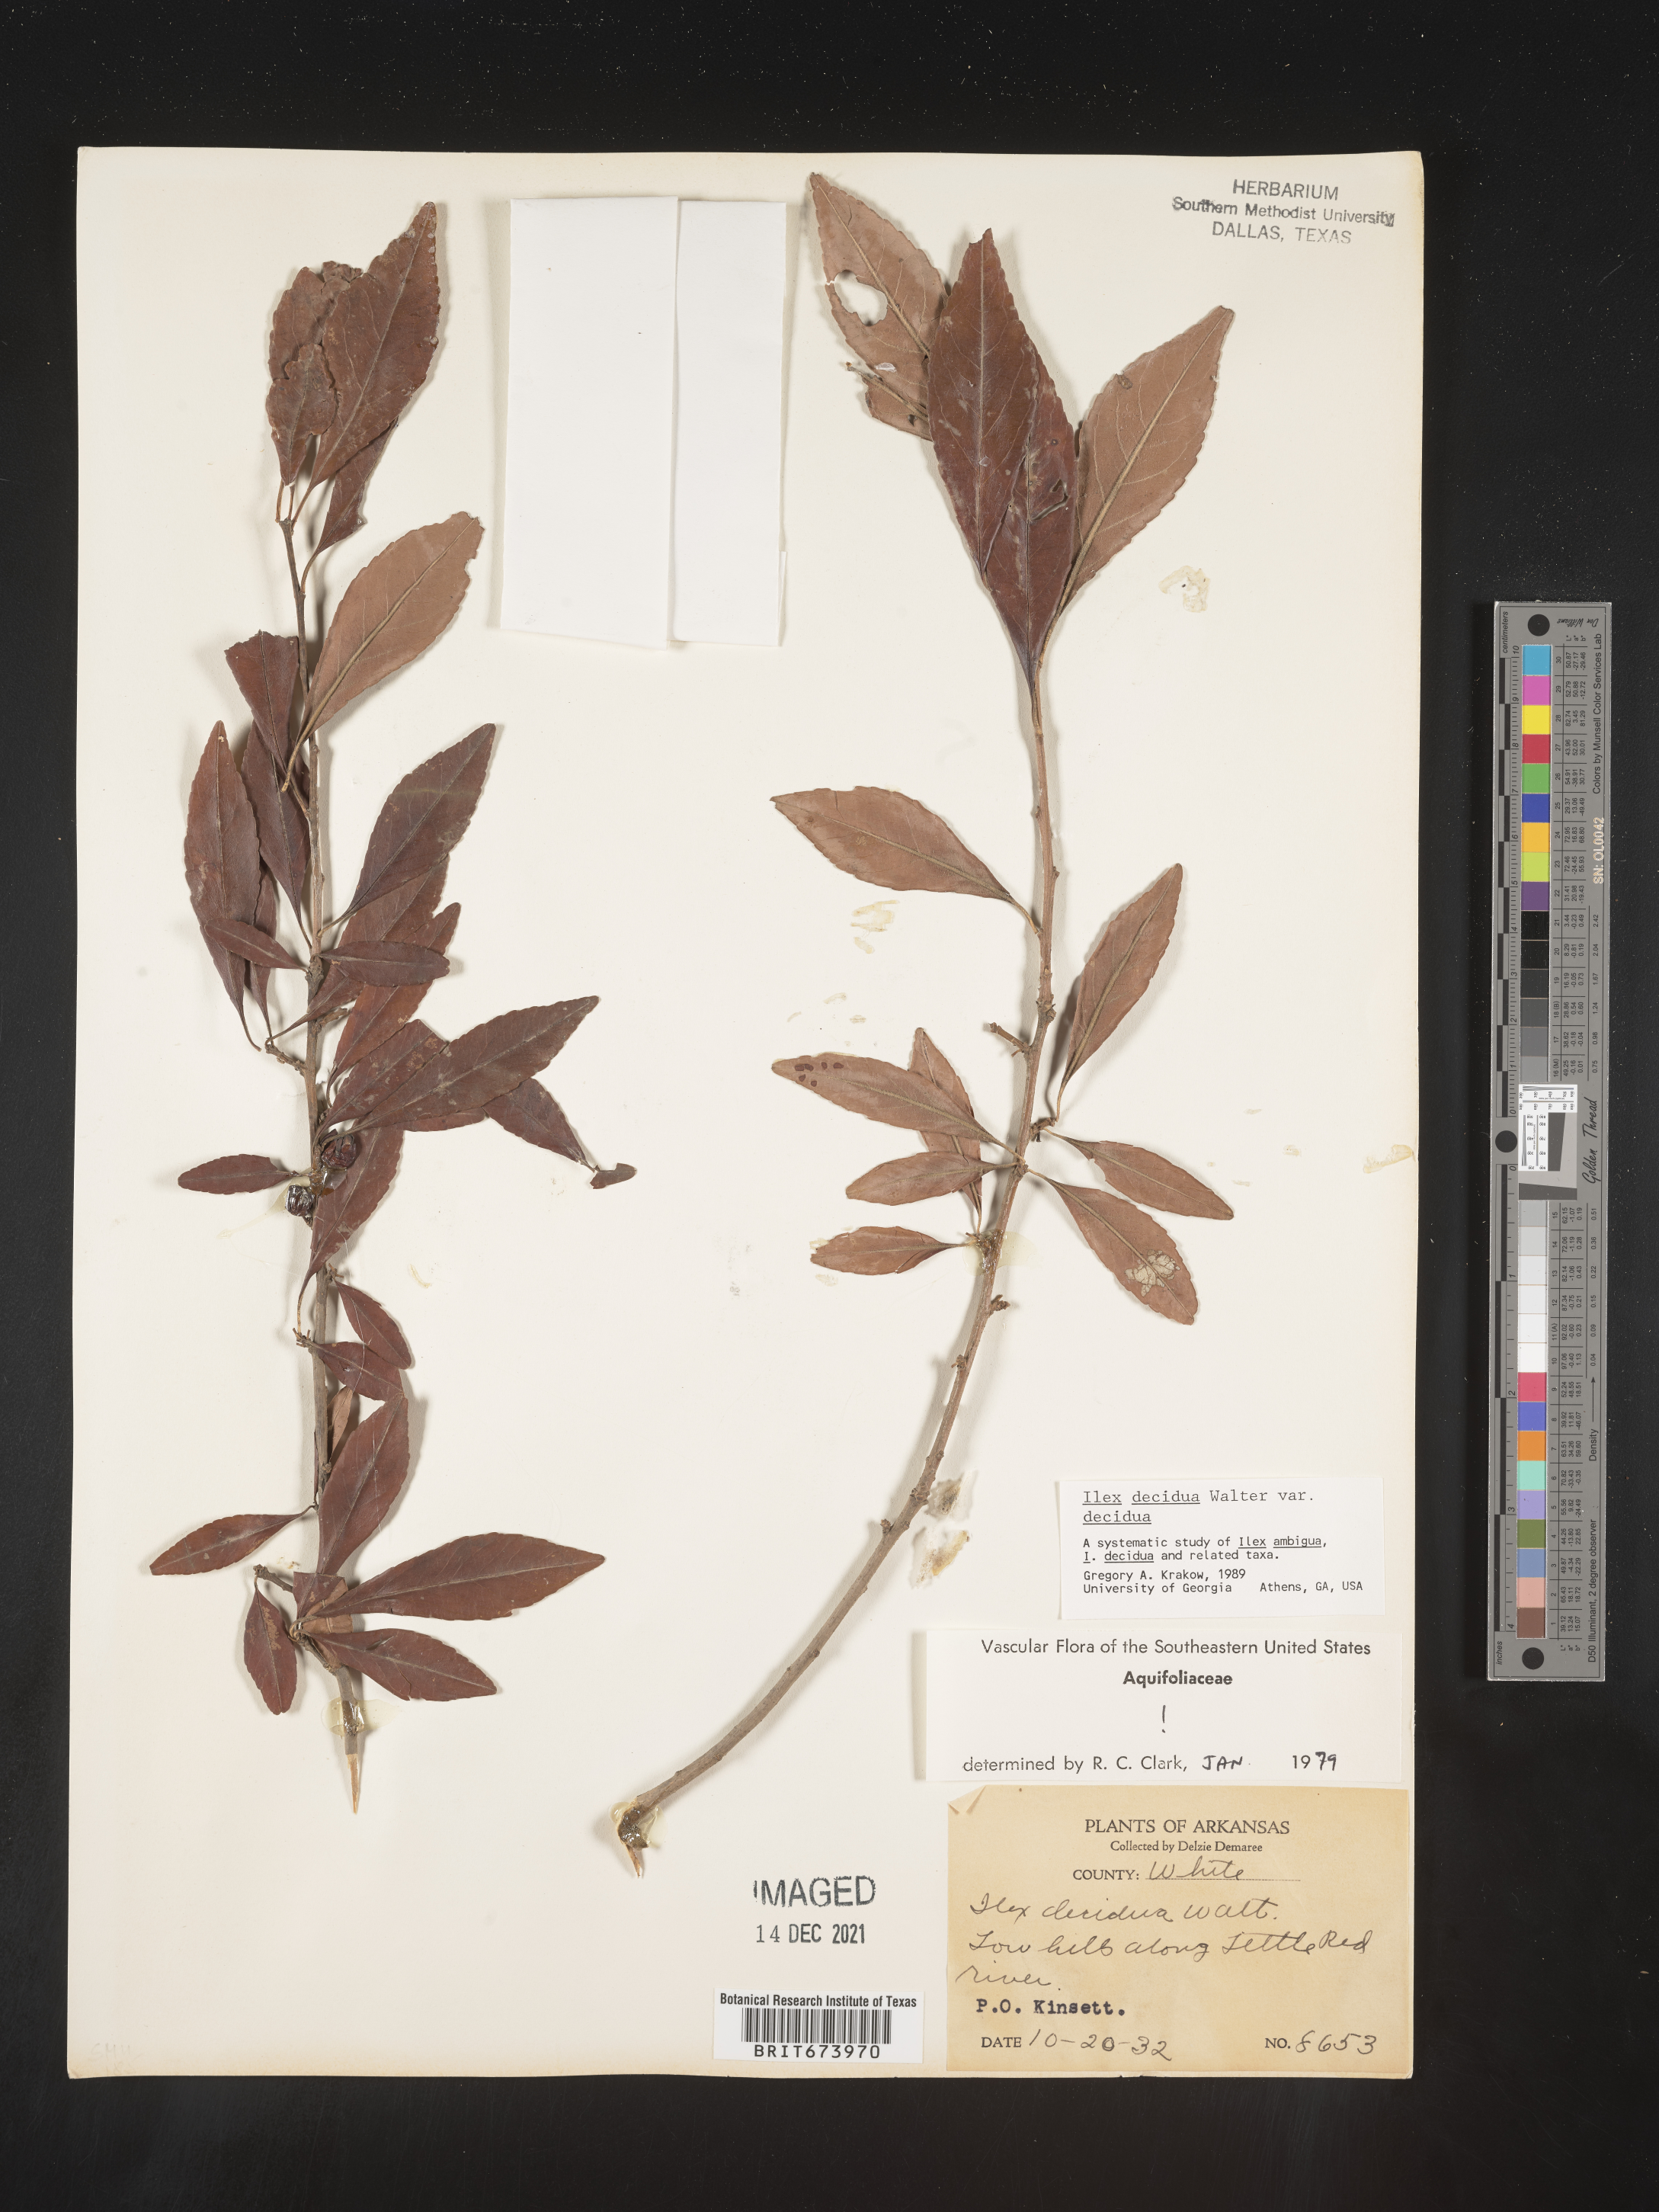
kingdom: Plantae
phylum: Tracheophyta
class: Magnoliopsida
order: Aquifoliales
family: Aquifoliaceae
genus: Ilex
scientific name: Ilex decidua
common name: Possum-haw
